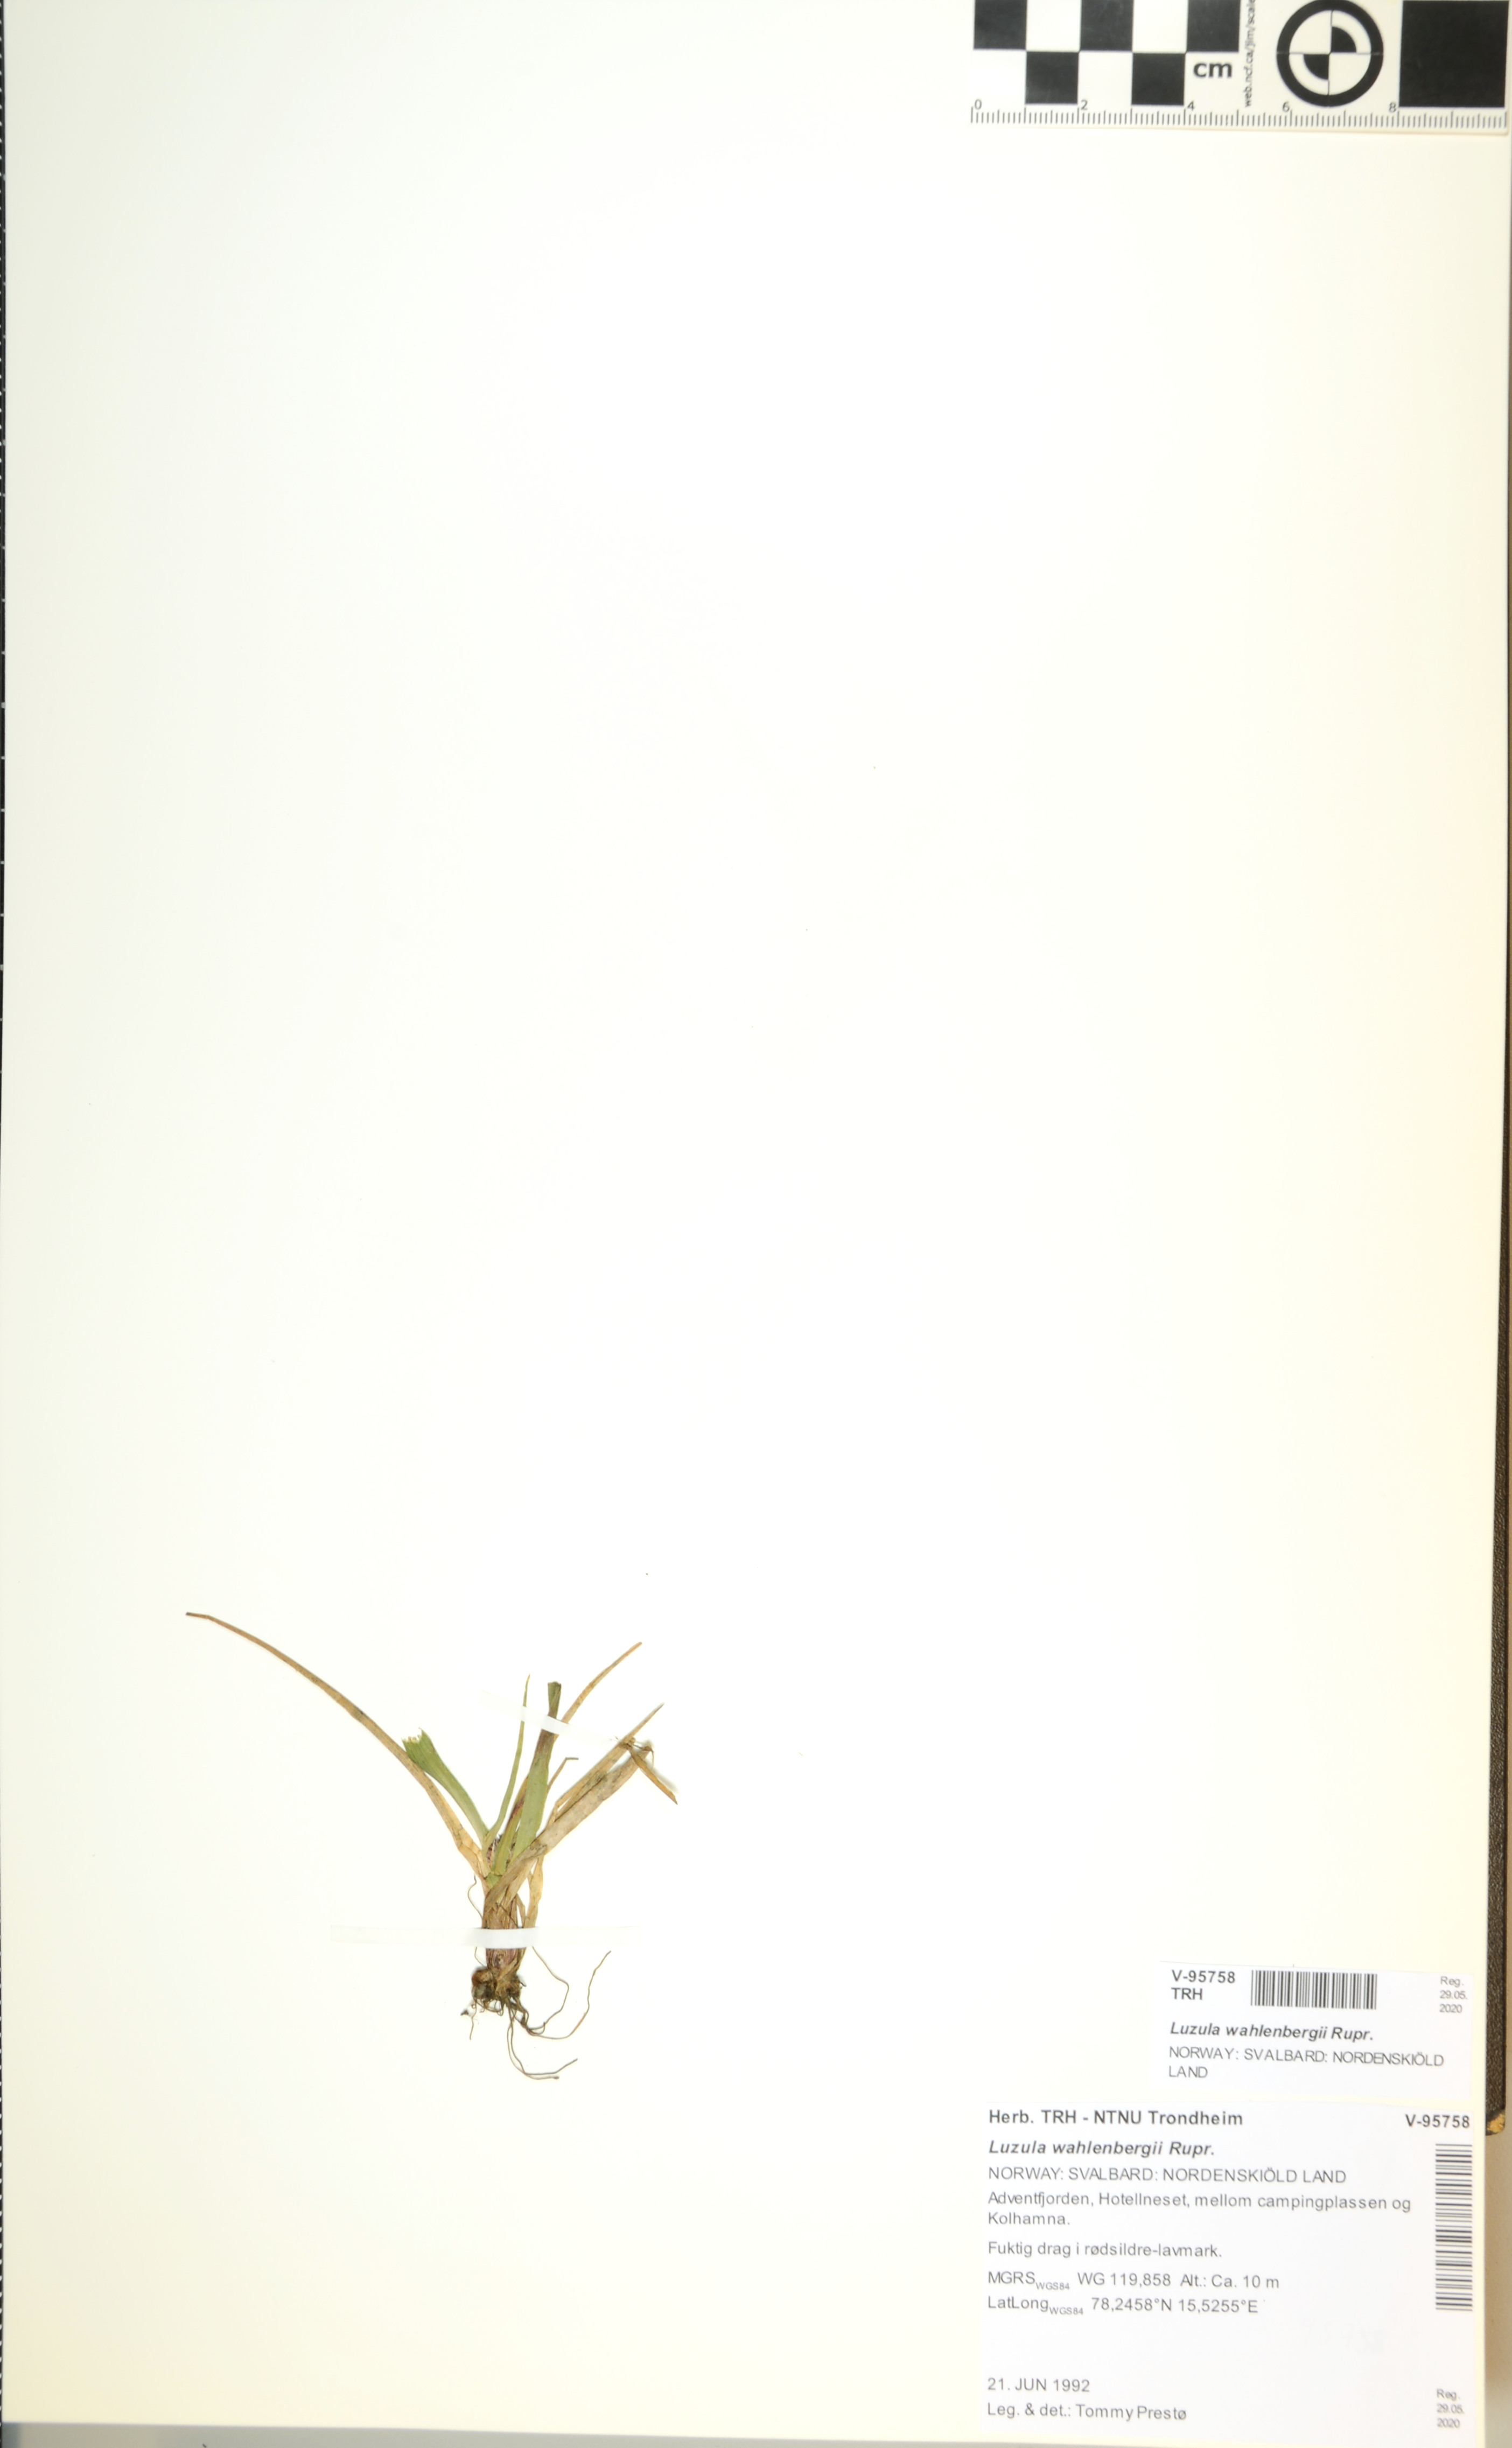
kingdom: Plantae
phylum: Tracheophyta
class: Liliopsida
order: Poales
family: Juncaceae
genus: Luzula
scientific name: Luzula wahlenbergii
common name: Wahlenberg's wood-rush
